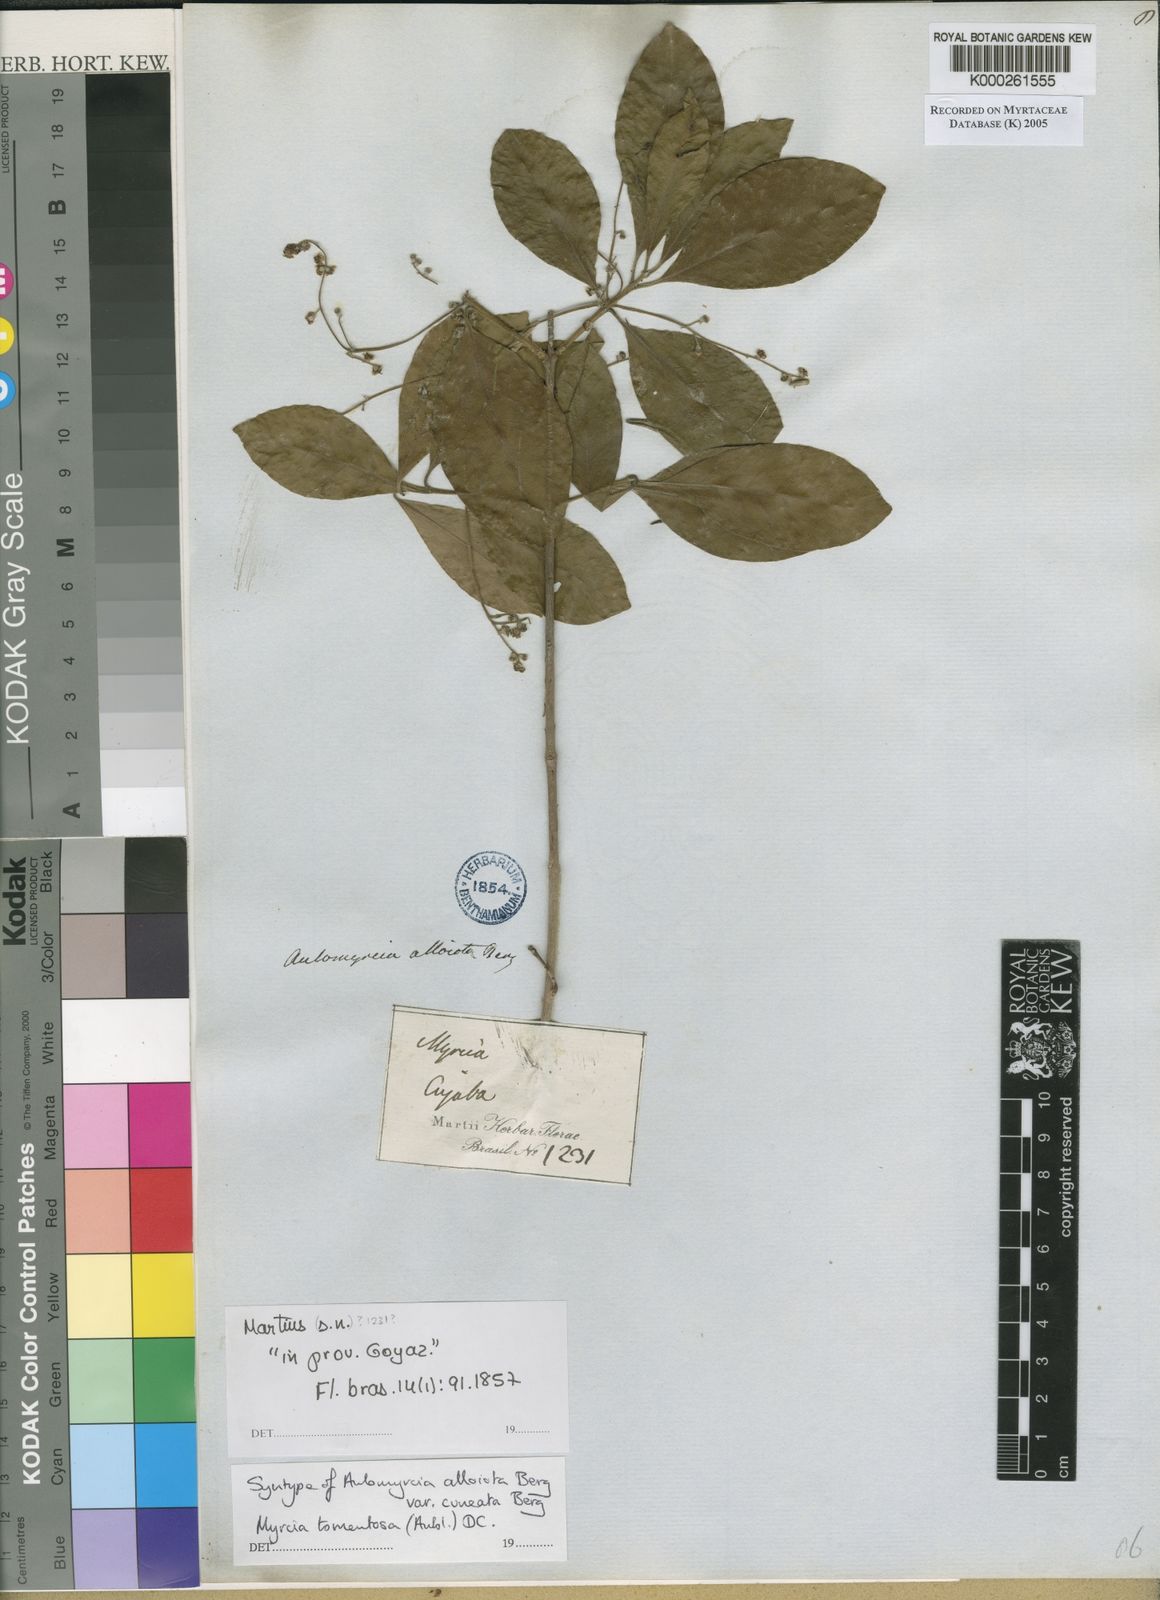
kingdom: Plantae
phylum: Tracheophyta
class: Magnoliopsida
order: Myrtales
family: Myrtaceae
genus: Myrcia
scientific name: Myrcia tomentosa
